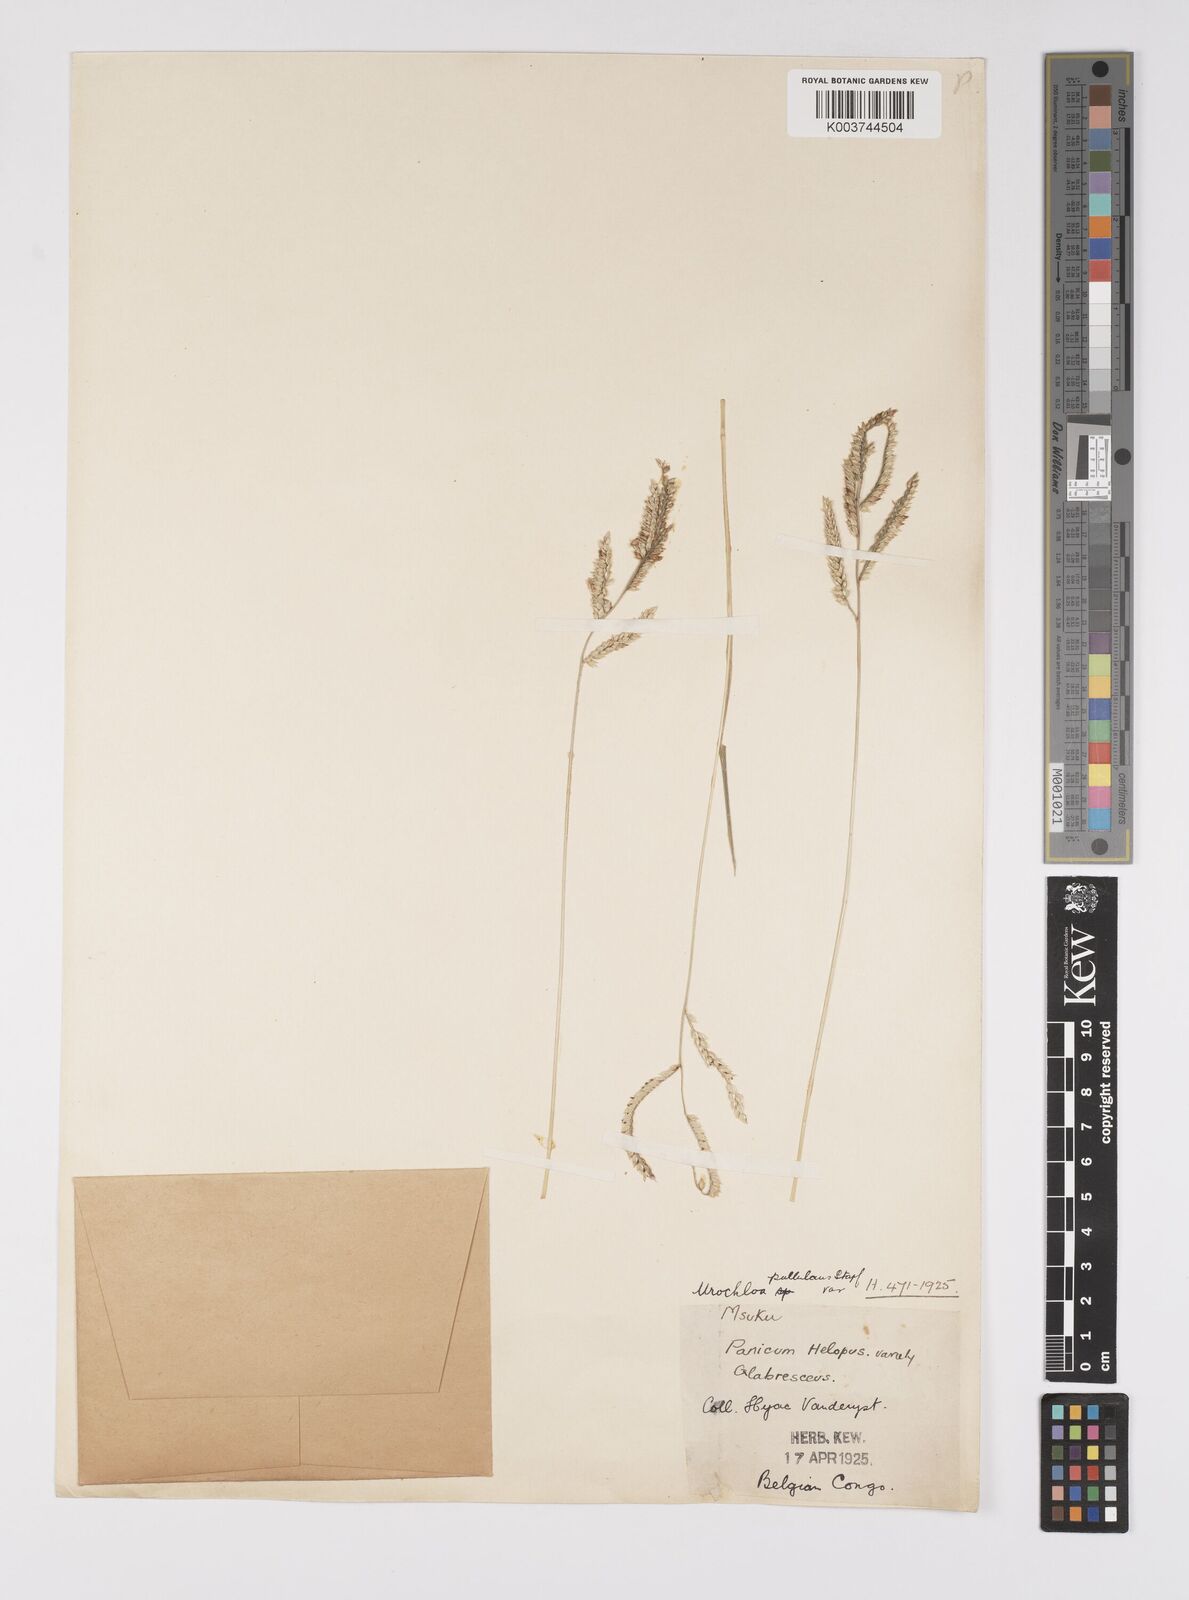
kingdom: Plantae
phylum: Tracheophyta
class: Liliopsida
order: Poales
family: Poaceae
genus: Urochloa
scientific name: Urochloa trichopus
